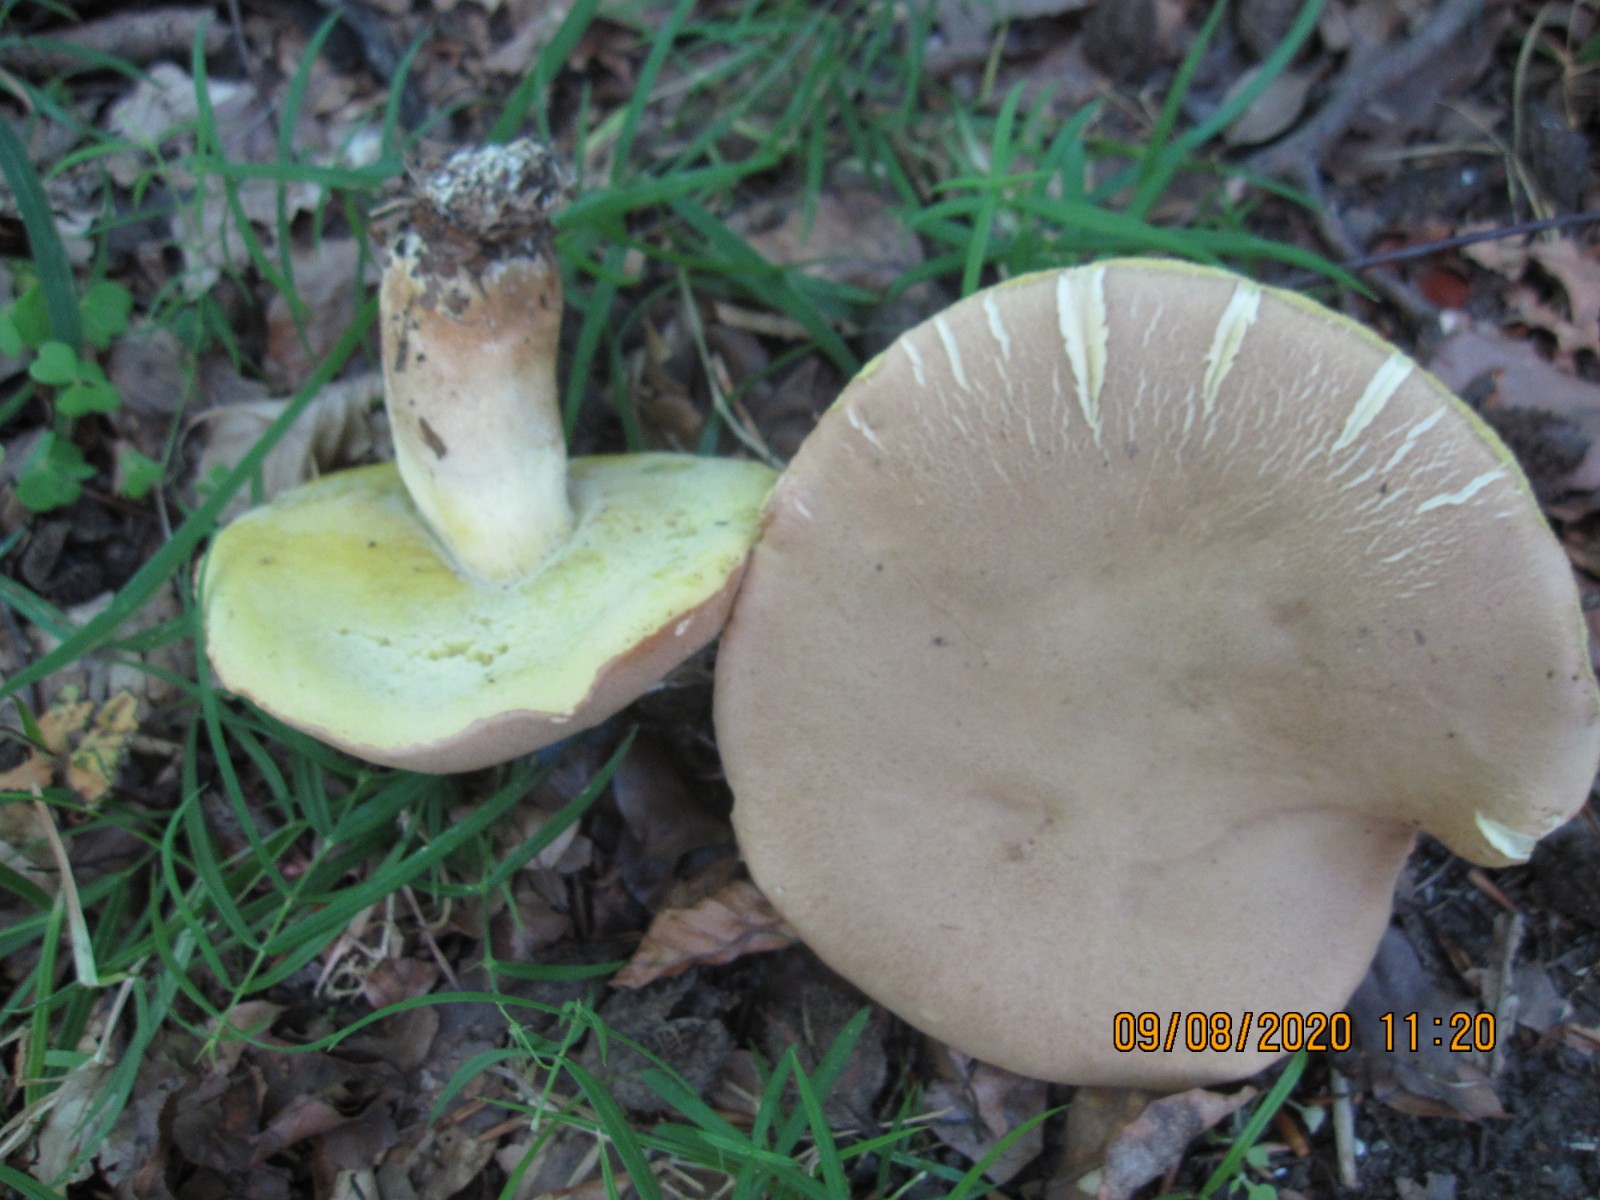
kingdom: Fungi
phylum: Basidiomycota
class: Agaricomycetes
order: Boletales
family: Boletaceae
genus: Butyriboletus
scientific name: Butyriboletus appendiculatus
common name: tenstokket rørhat
